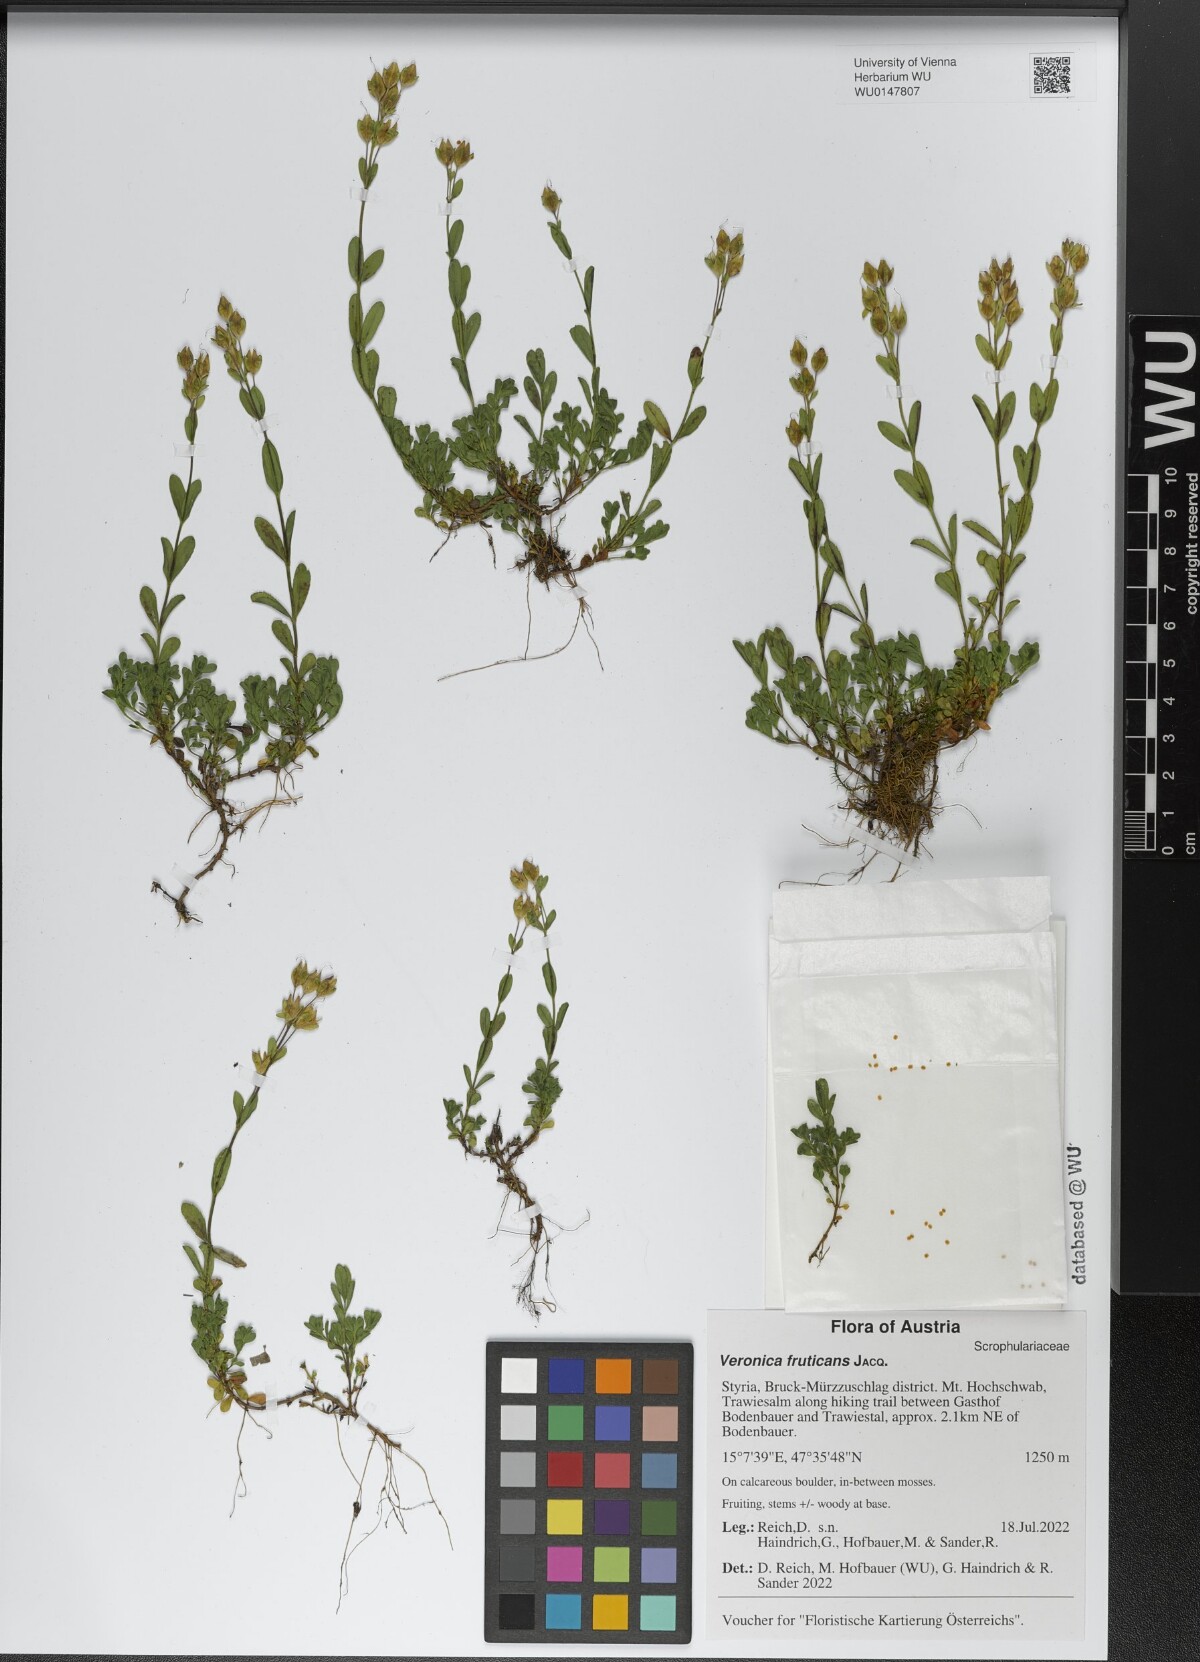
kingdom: Plantae
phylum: Tracheophyta
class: Magnoliopsida
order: Lamiales
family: Plantaginaceae
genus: Veronica
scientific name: Veronica fruticans
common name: Rock speedwell
